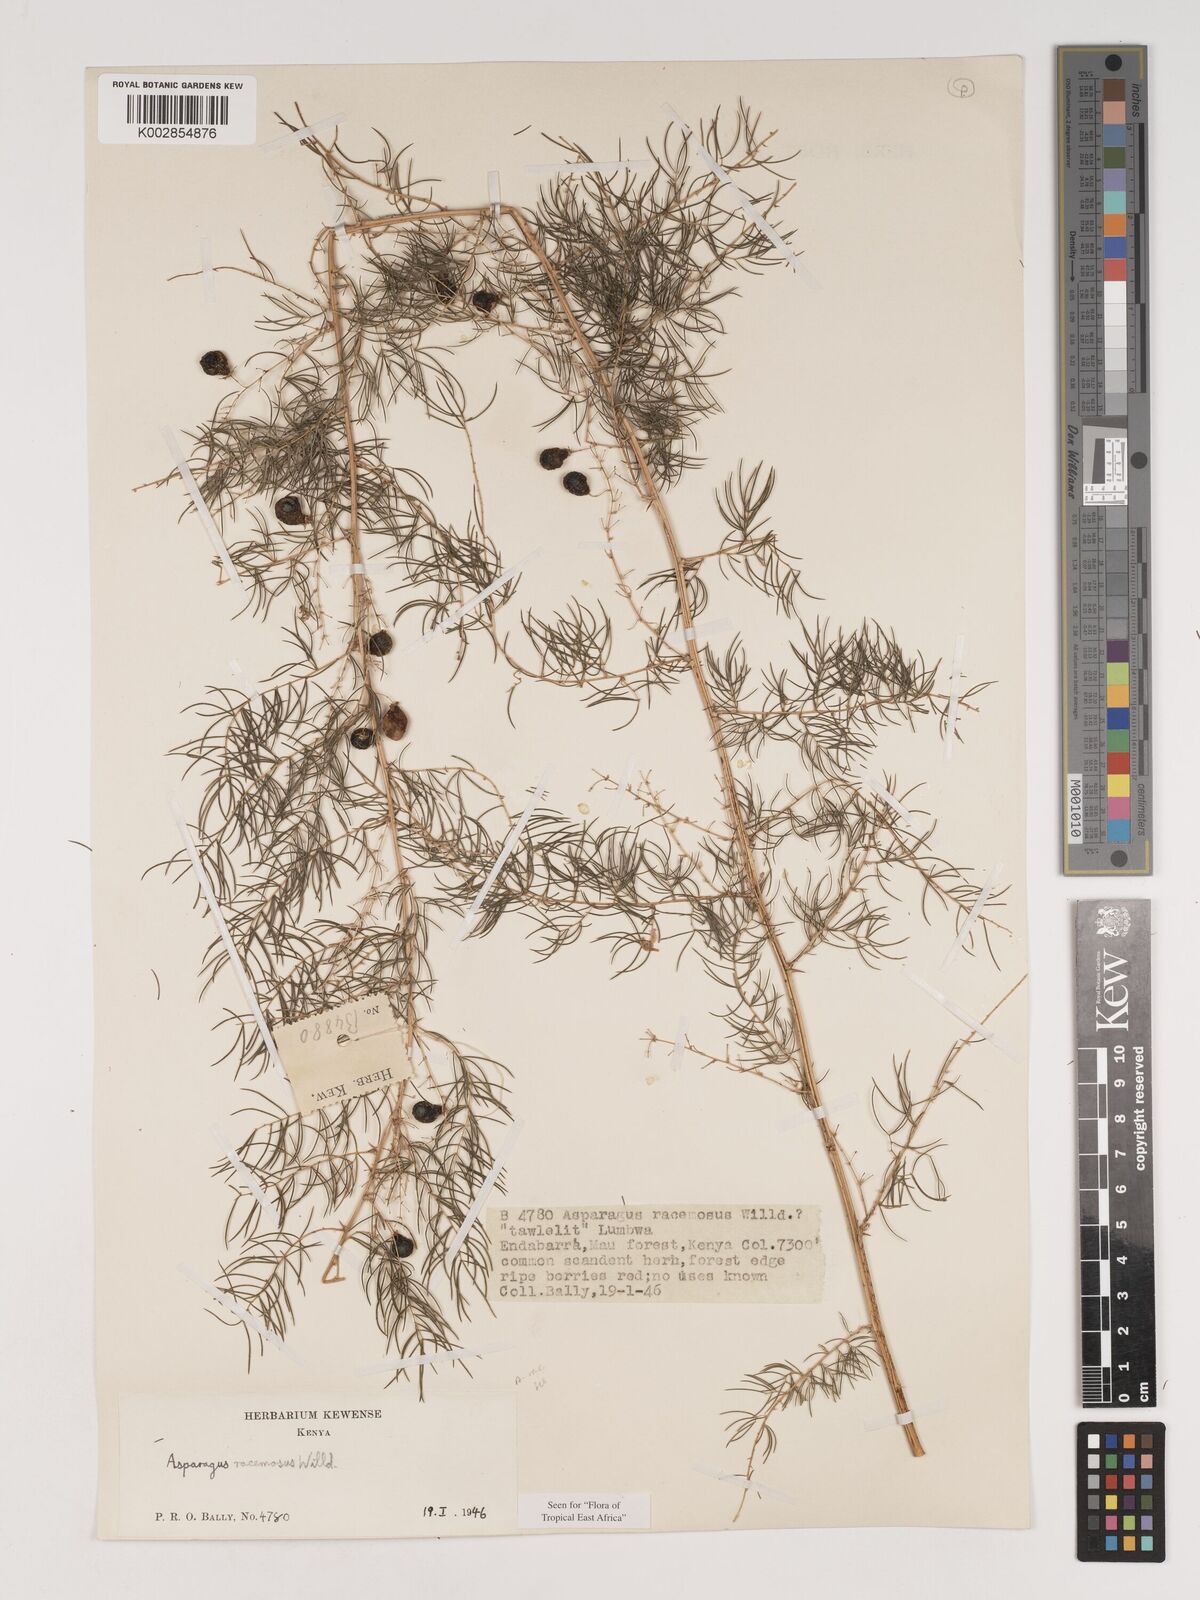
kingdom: Plantae
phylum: Tracheophyta
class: Liliopsida
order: Asparagales
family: Asparagaceae
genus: Asparagus
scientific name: Asparagus racemosus
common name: Asparagus-fern
